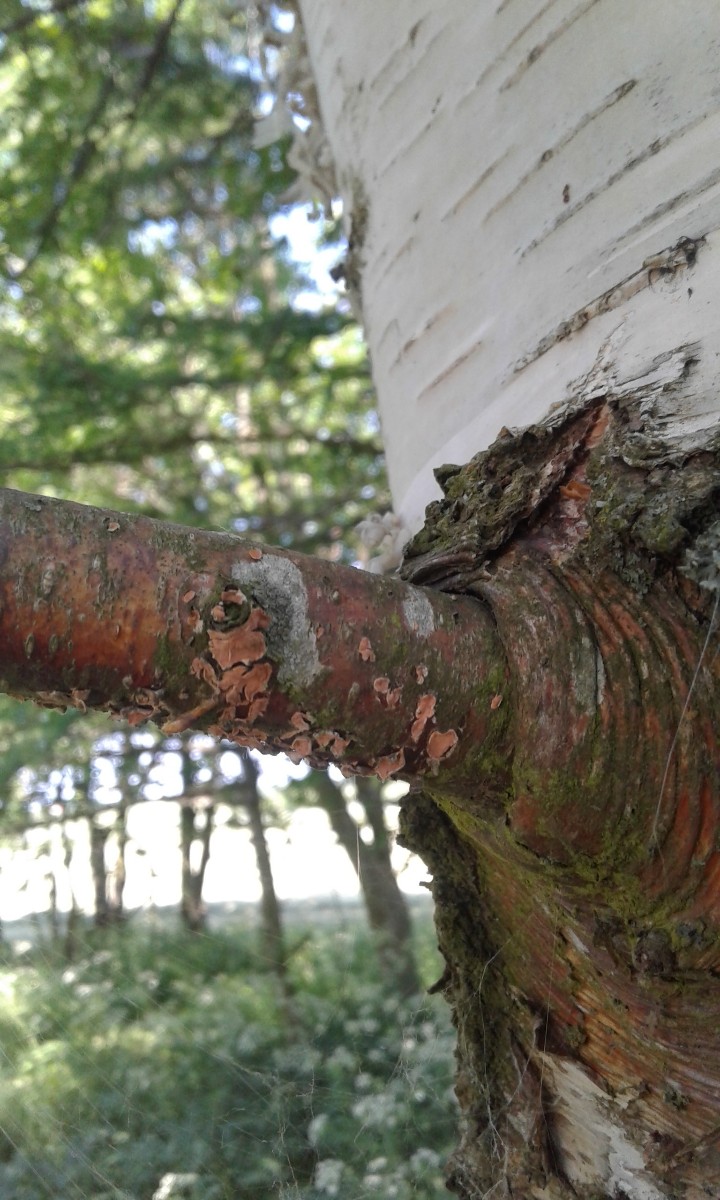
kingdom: Fungi
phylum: Basidiomycota
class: Agaricomycetes
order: Russulales
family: Peniophoraceae
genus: Peniophora
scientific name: Peniophora incarnata
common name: laksefarvet voksskind
